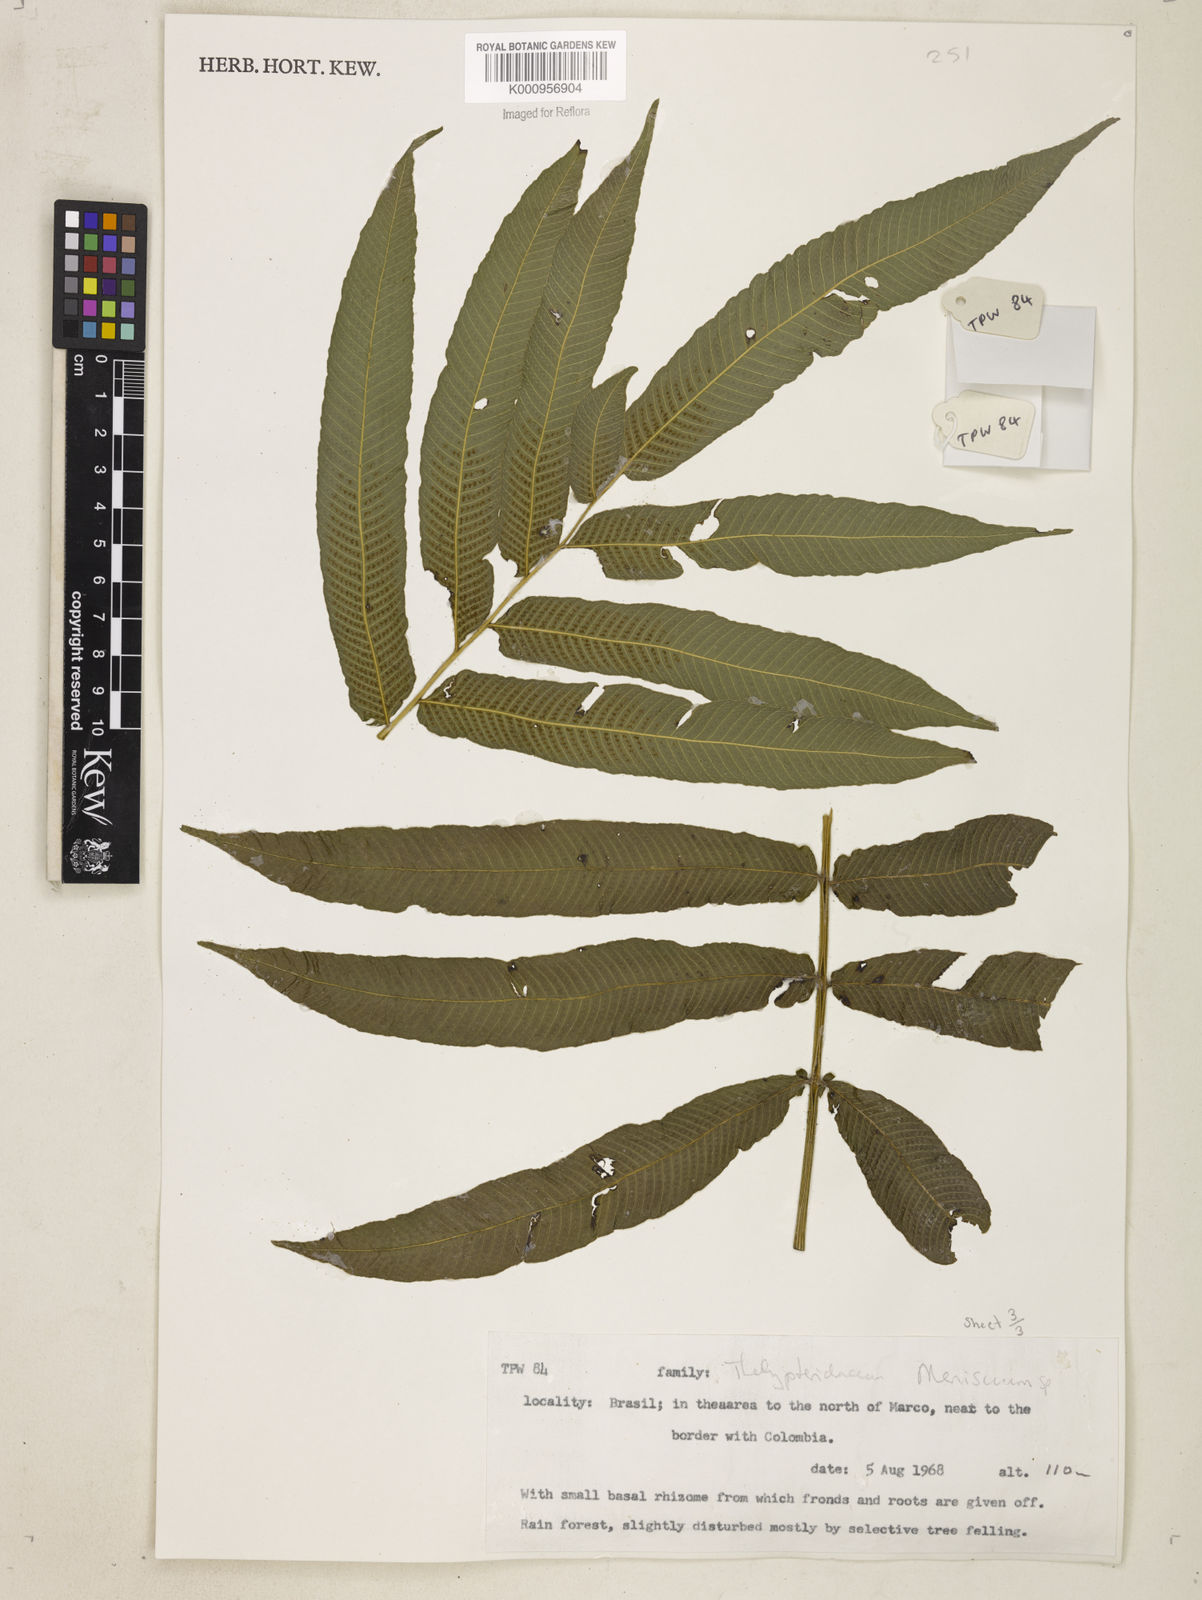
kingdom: Plantae
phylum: Tracheophyta
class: Polypodiopsida
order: Polypodiales
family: Thelypteridaceae
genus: Meniscium
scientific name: Meniscium
